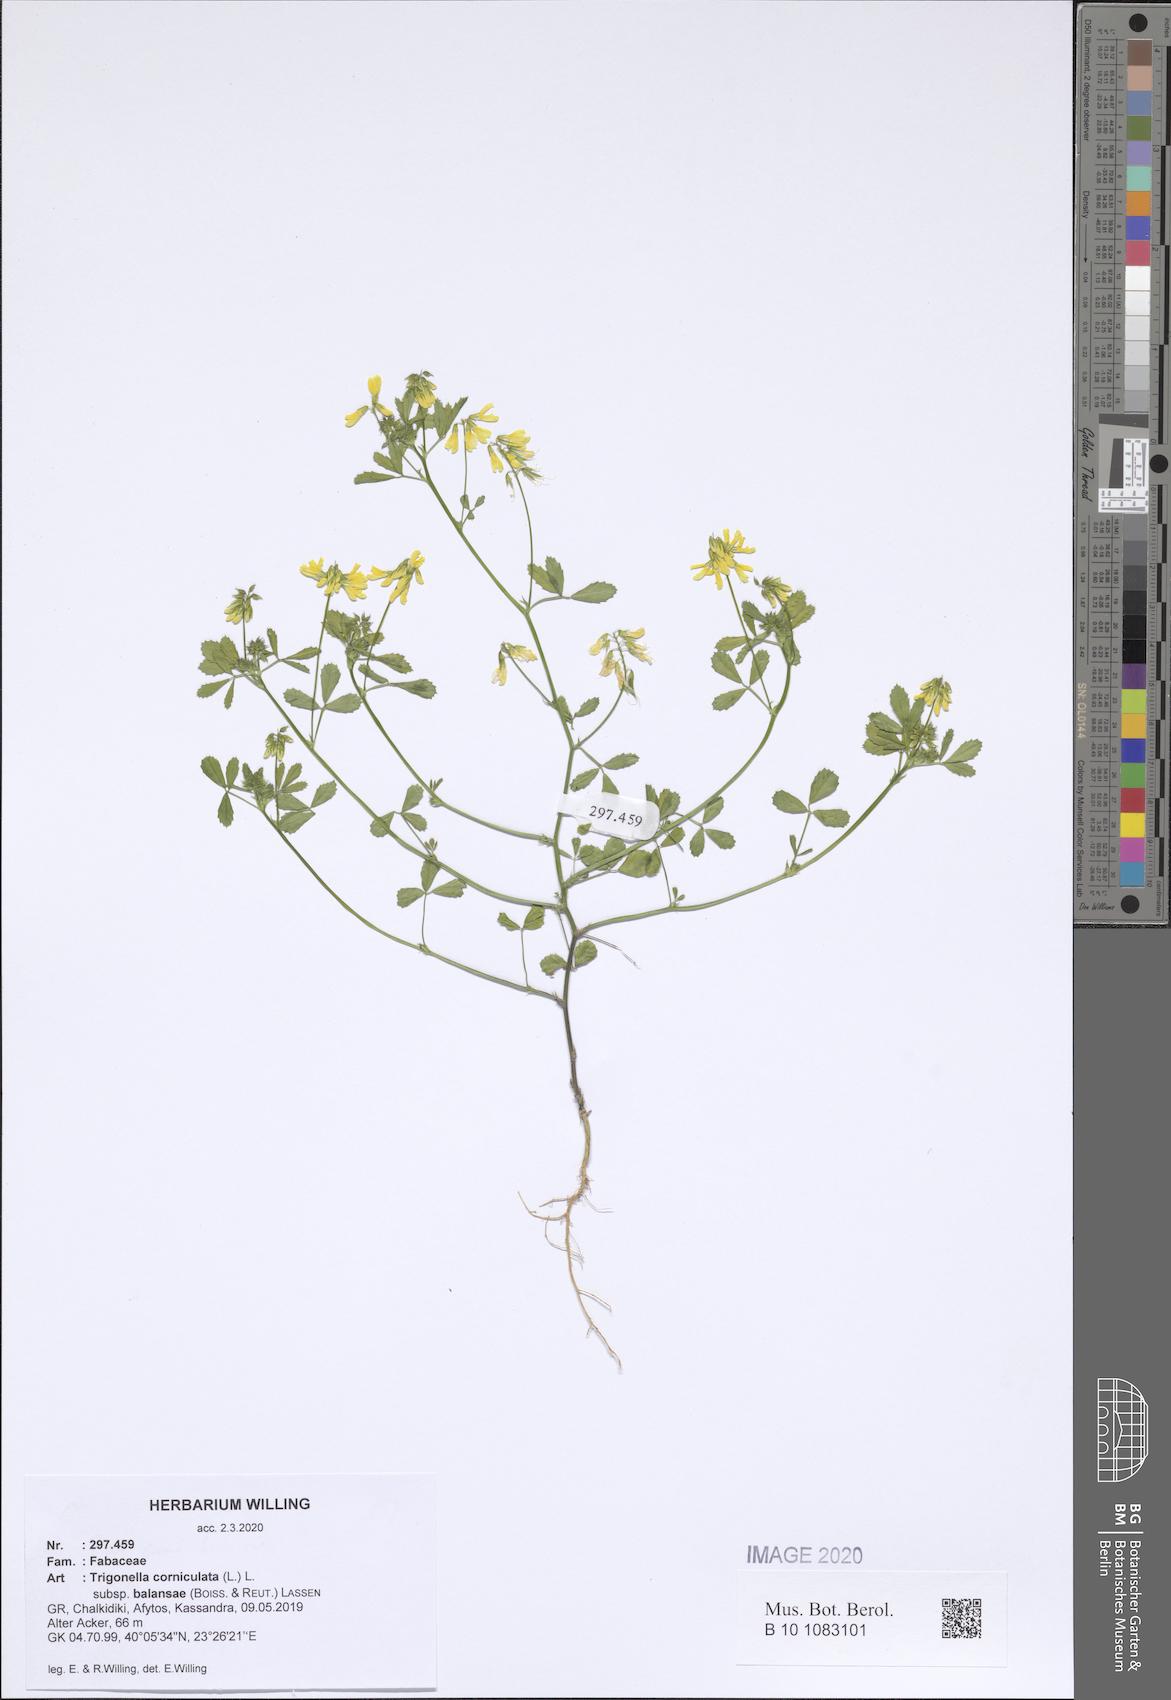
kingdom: Plantae
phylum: Tracheophyta
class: Magnoliopsida
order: Fabales
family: Fabaceae
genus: Trigonella
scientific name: Trigonella balansae
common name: Sickle-fruited fenugreek
